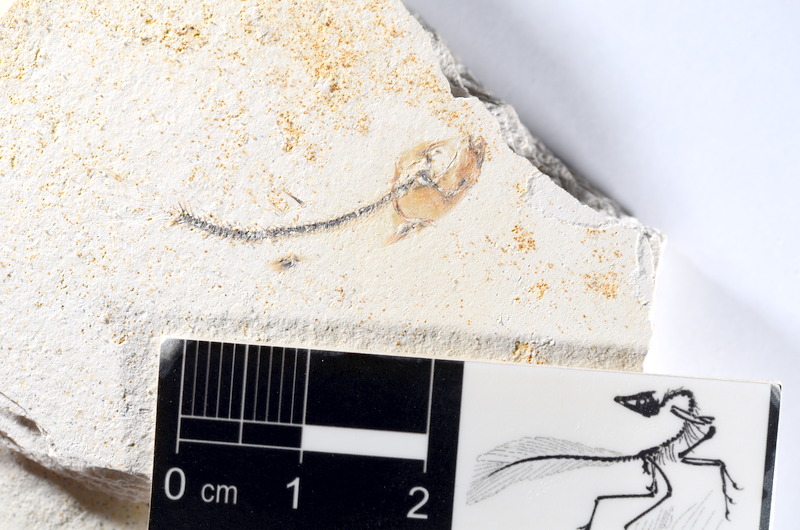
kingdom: Animalia
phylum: Chordata
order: Salmoniformes
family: Orthogonikleithridae
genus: Orthogonikleithrus
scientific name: Orthogonikleithrus hoelli
